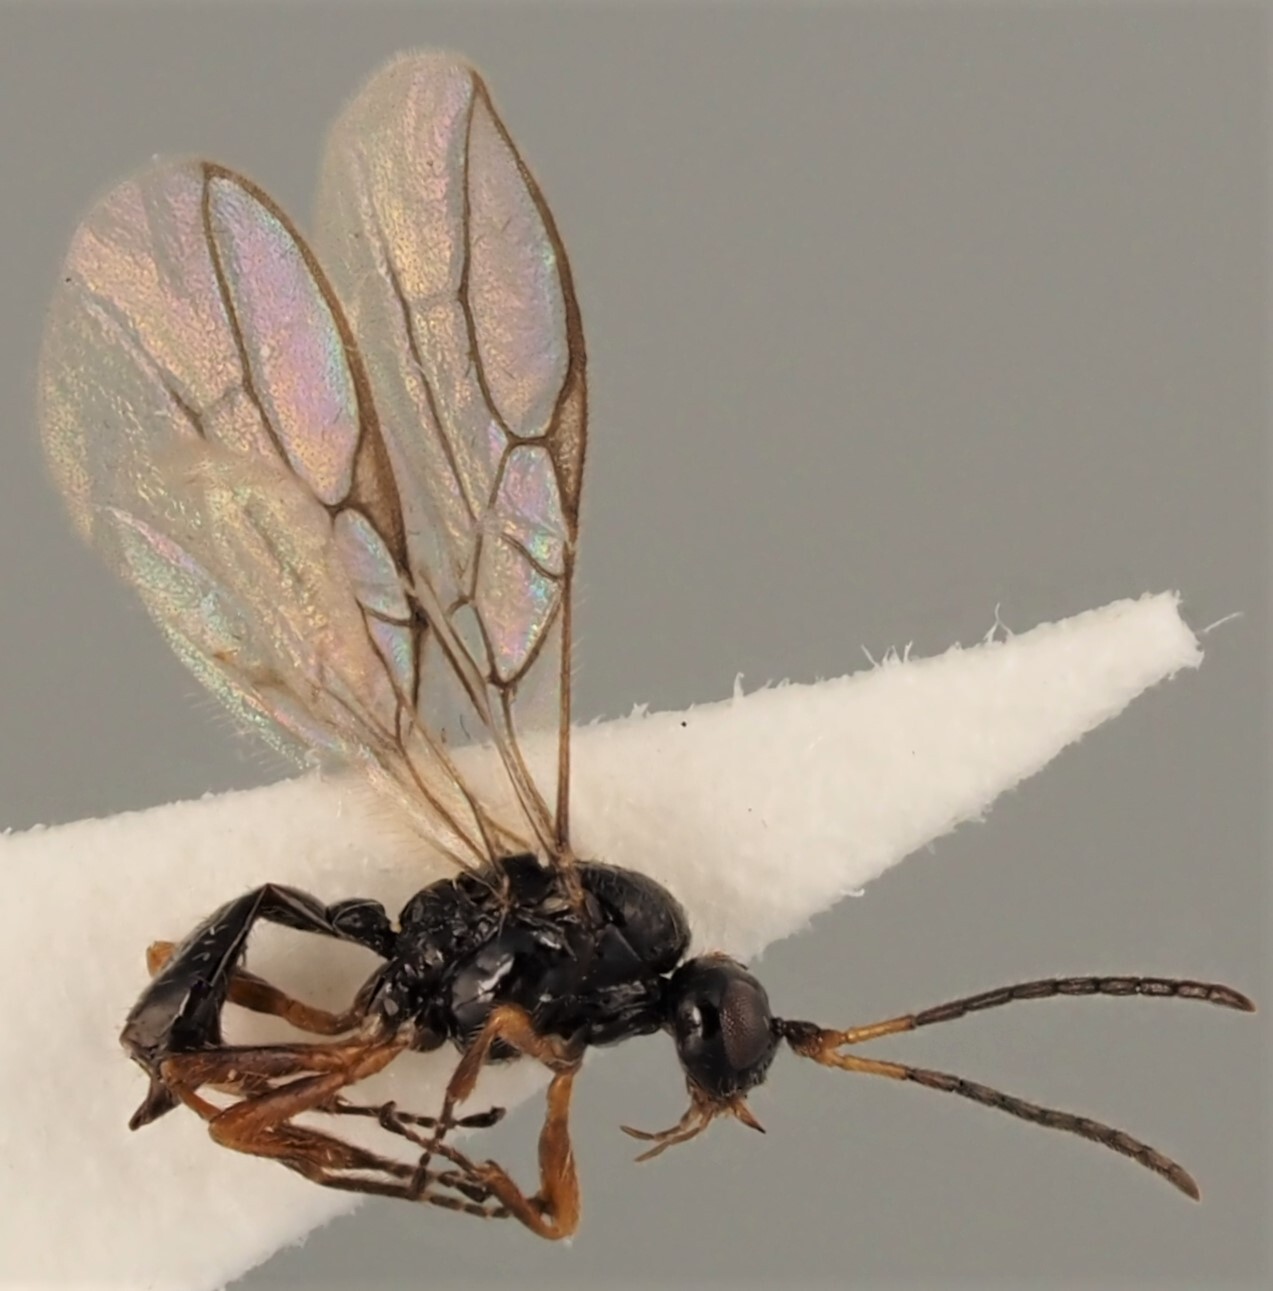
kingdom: Animalia
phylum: Arthropoda
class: Insecta
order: Hymenoptera
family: Braconidae
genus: Ephedrus
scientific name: Ephedrus brevis
